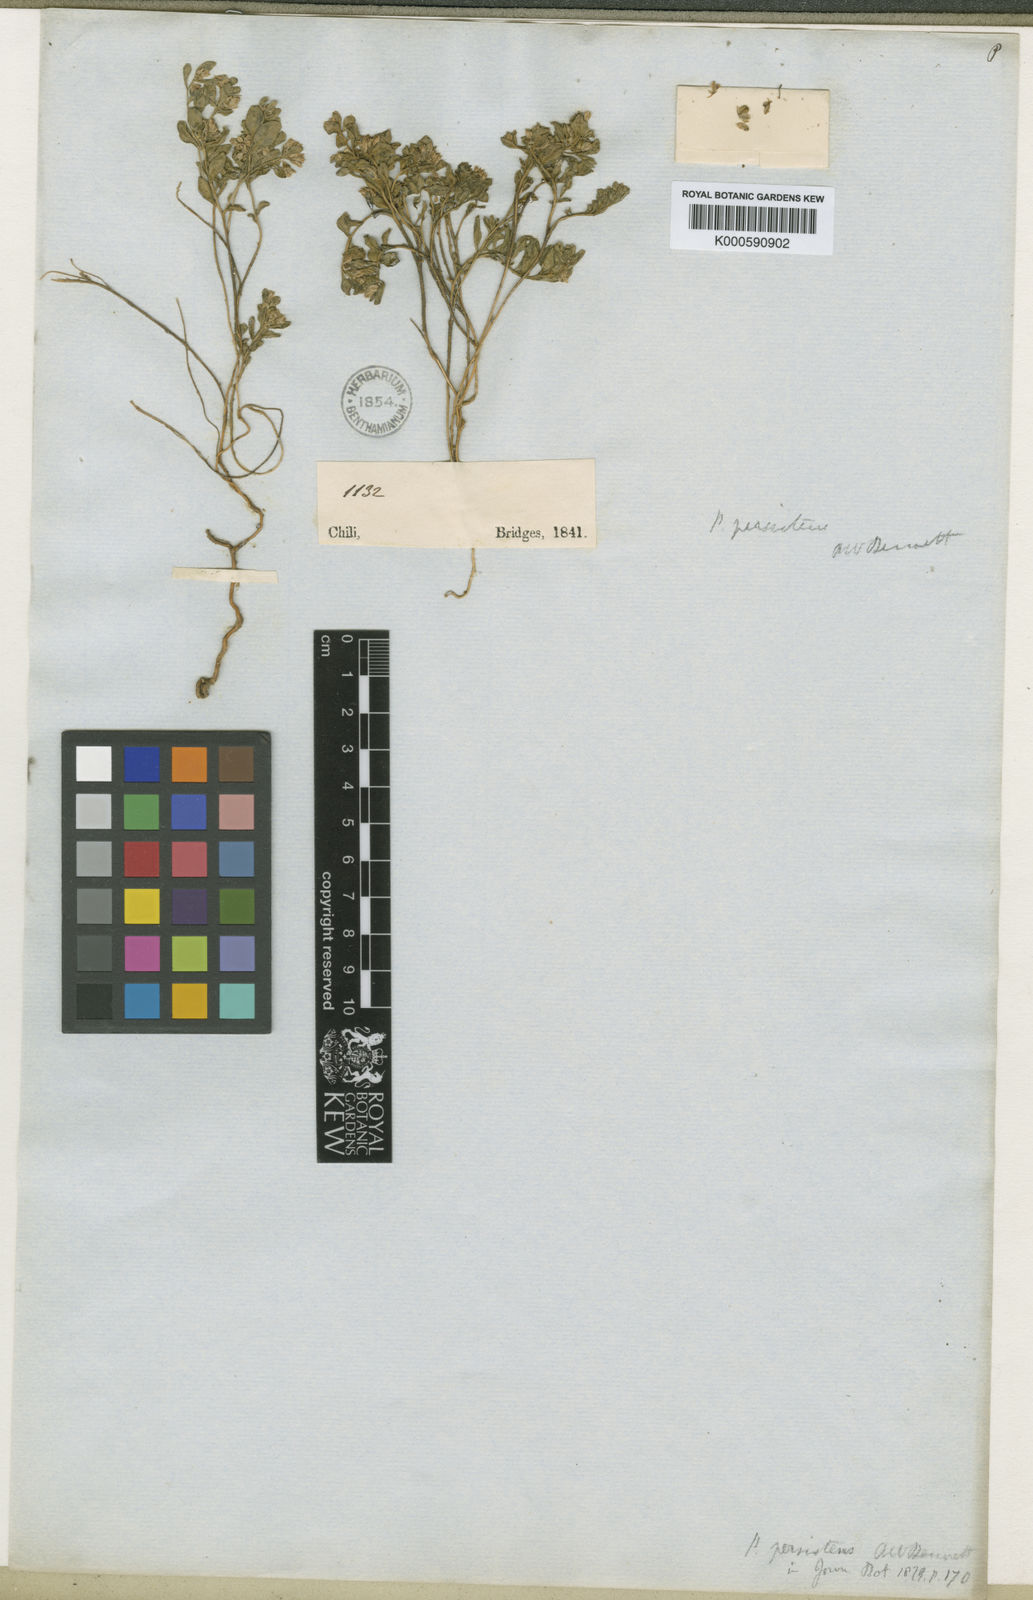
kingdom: Plantae
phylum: Tracheophyta
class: Magnoliopsida
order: Fabales
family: Polygalaceae
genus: Polygala
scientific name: Polygala persistens
